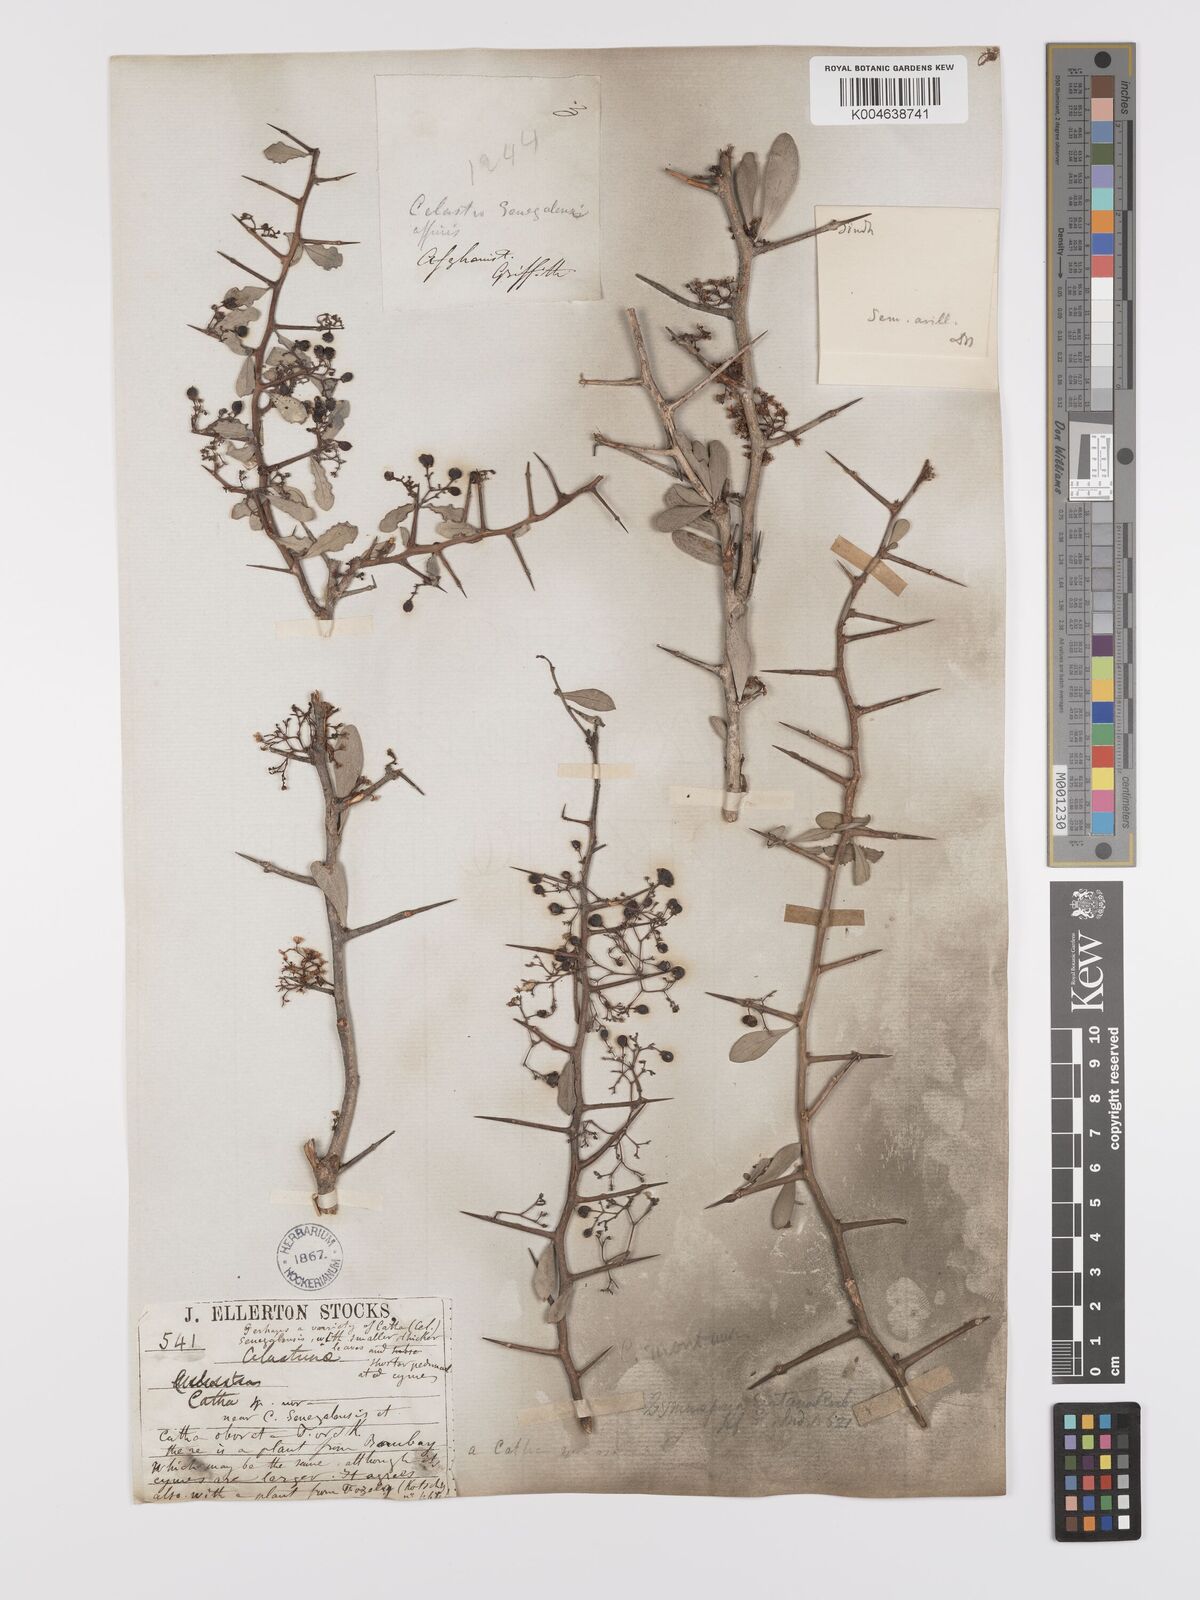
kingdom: Plantae
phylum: Tracheophyta
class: Magnoliopsida
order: Celastrales
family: Celastraceae
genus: Gymnosporia
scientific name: Gymnosporia senegalensis
